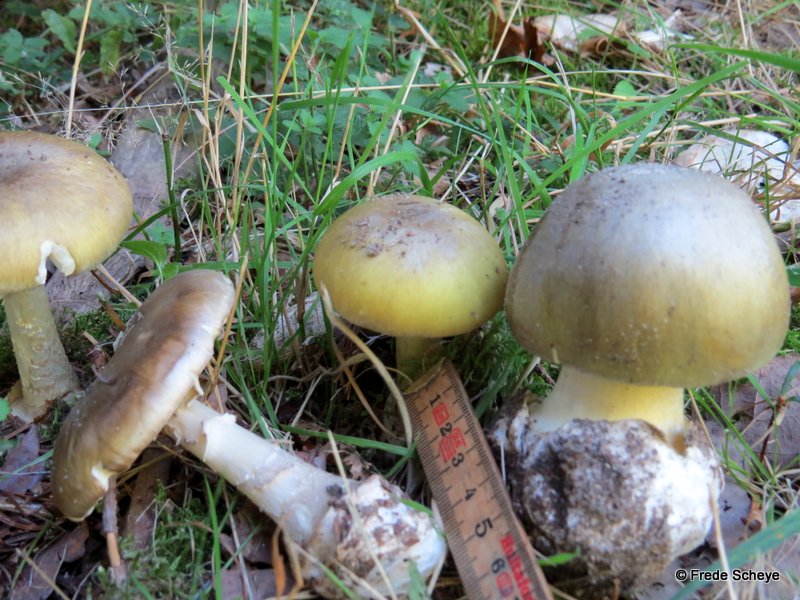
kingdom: Fungi
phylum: Basidiomycota
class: Agaricomycetes
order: Agaricales
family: Amanitaceae
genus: Amanita
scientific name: Amanita phalloides
